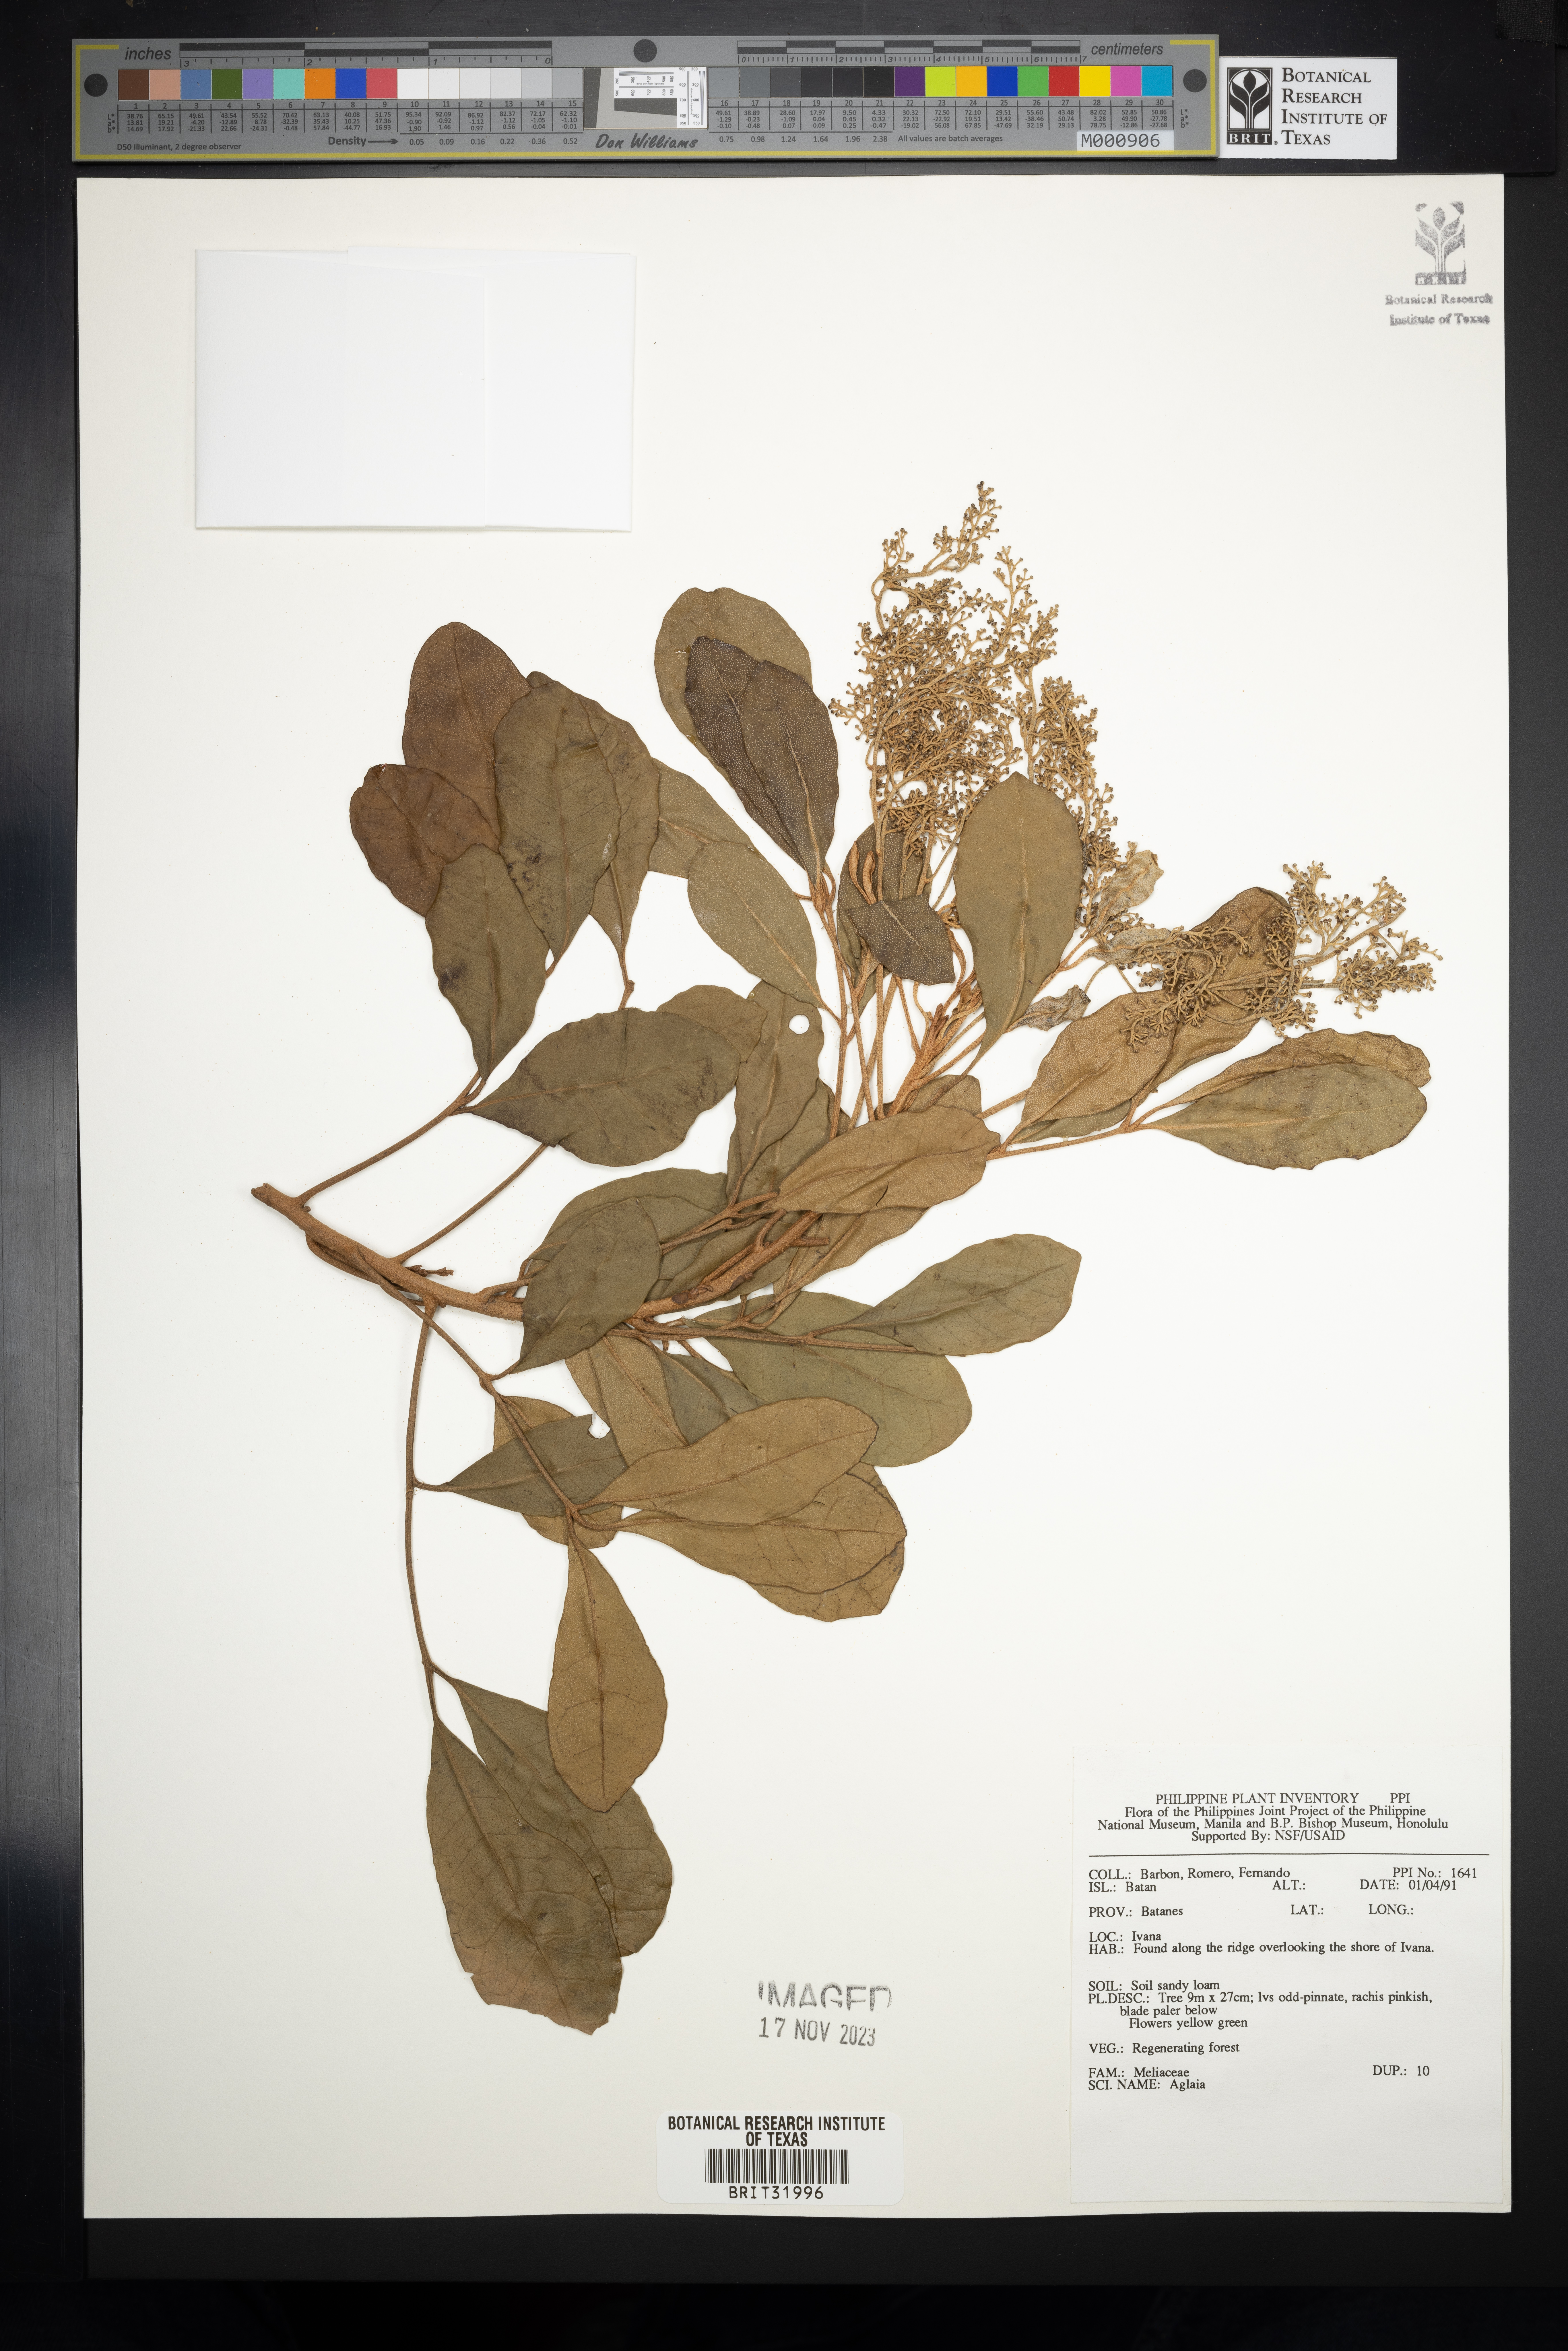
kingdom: Plantae
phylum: Tracheophyta
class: Magnoliopsida
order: Sapindales
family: Meliaceae
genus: Aglaia
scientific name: Aglaia
